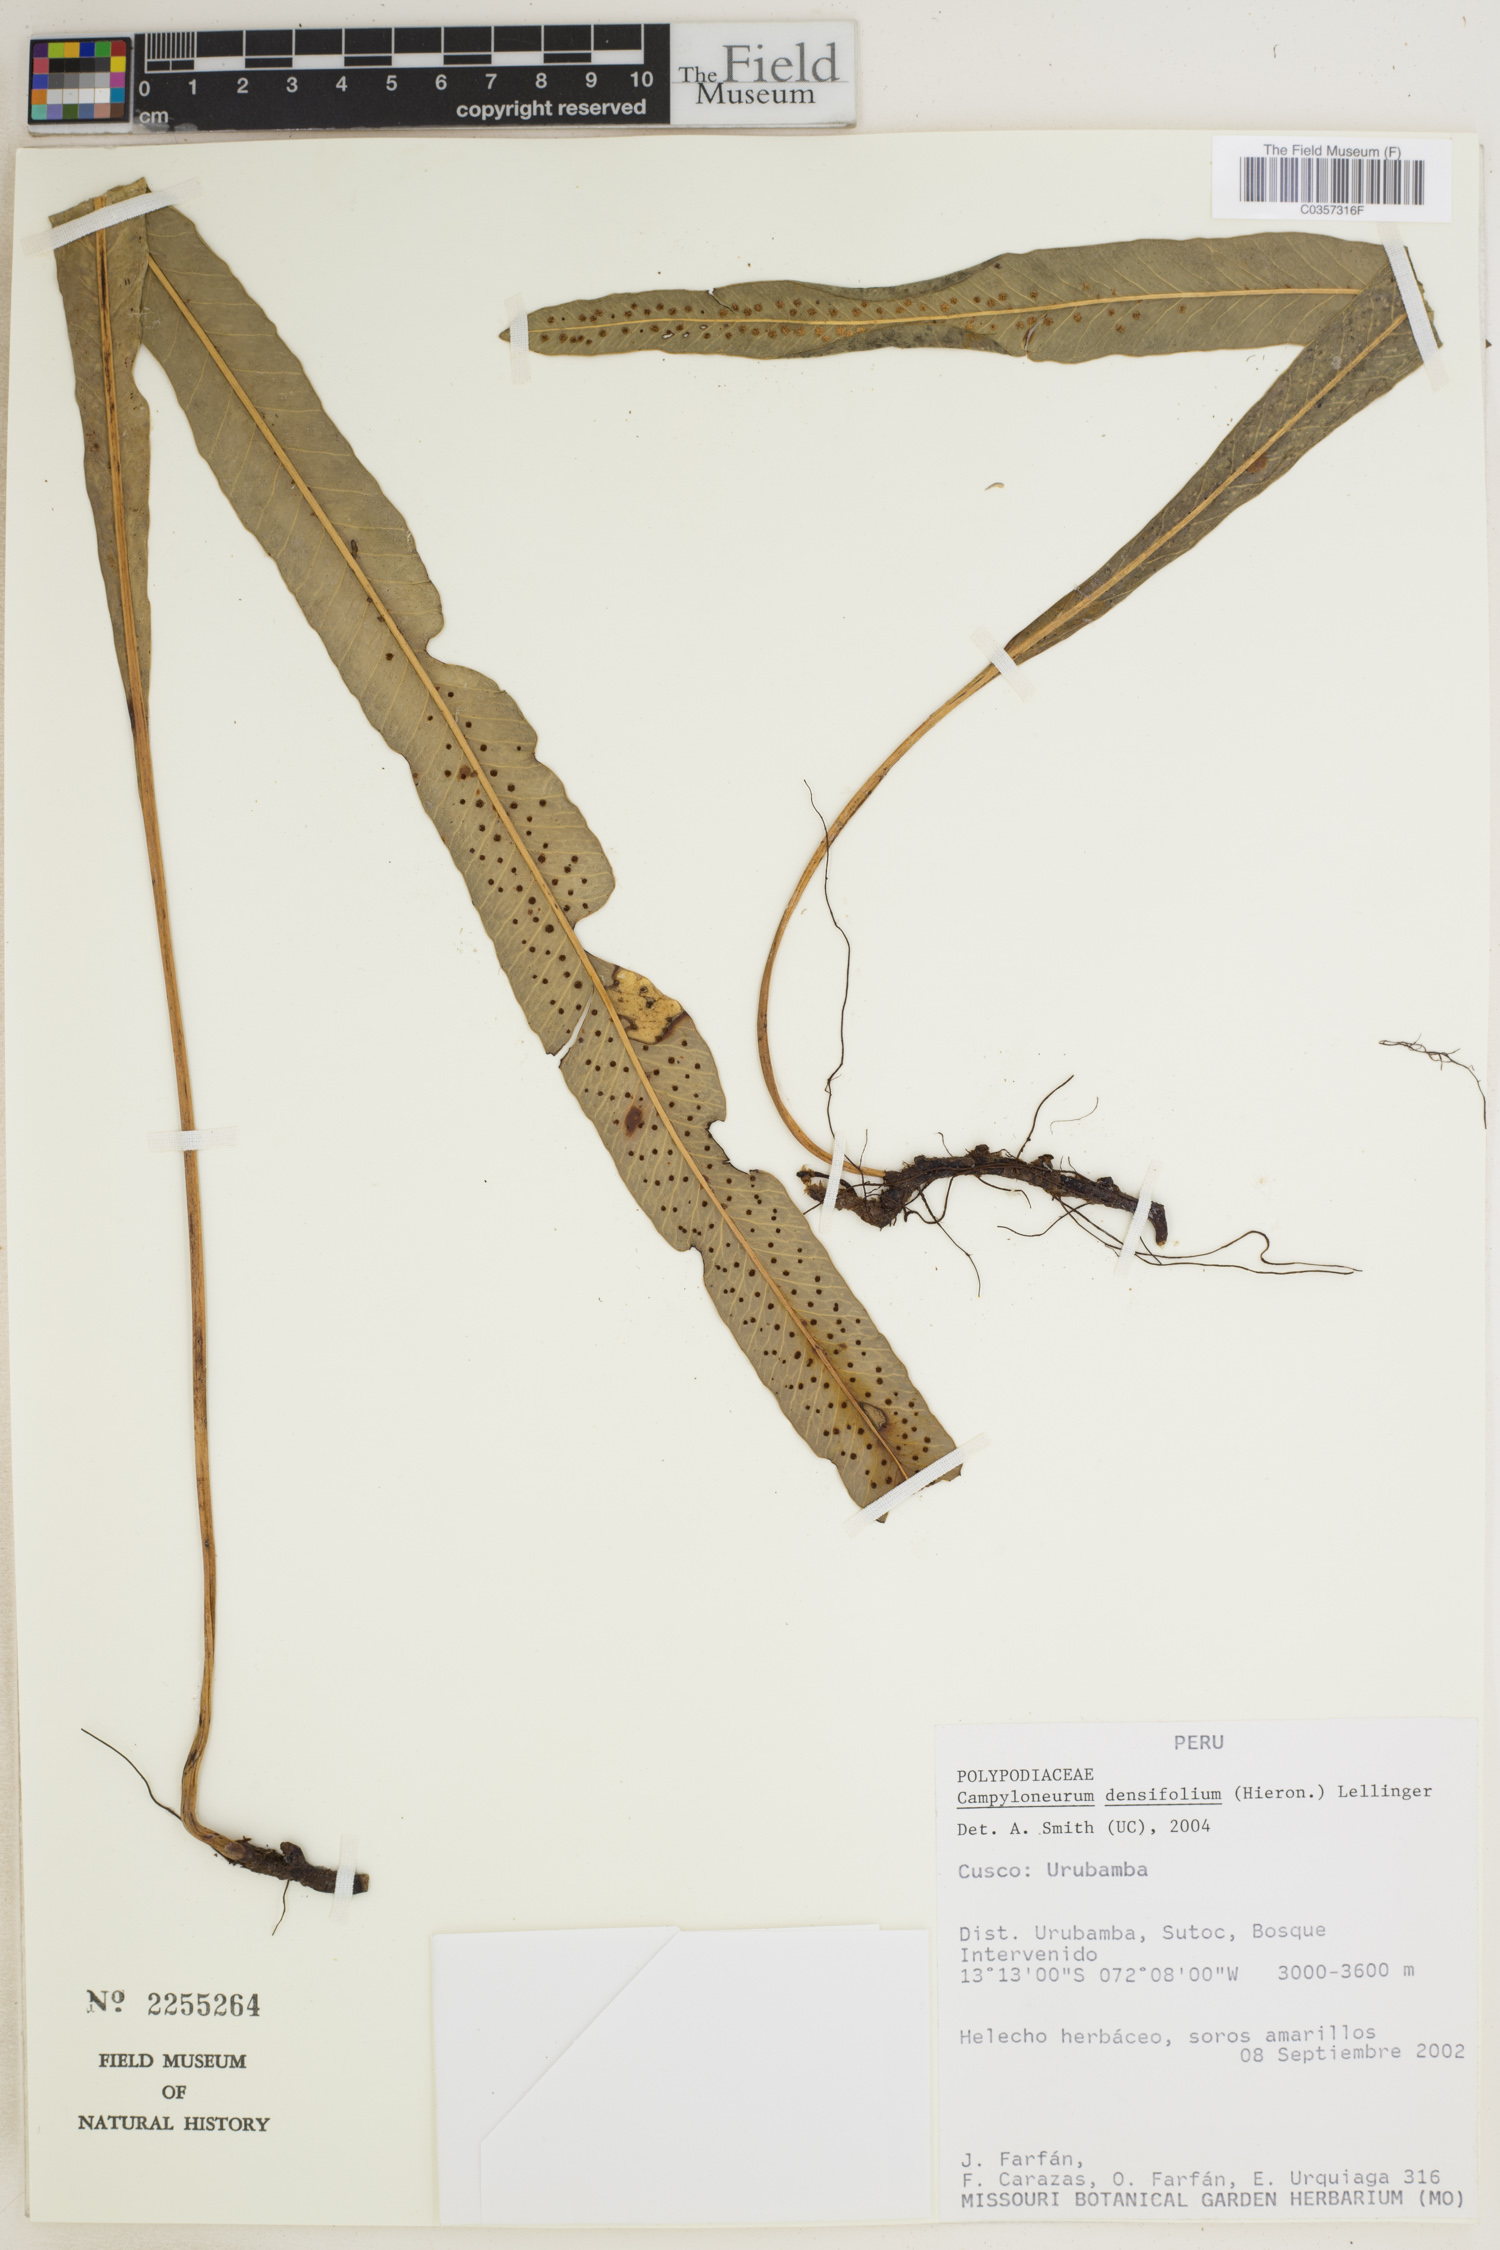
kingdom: Plantae
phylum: Tracheophyta
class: Polypodiopsida
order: Polypodiales
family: Polypodiaceae
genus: Campyloneurum
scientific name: Campyloneurum densifolium
